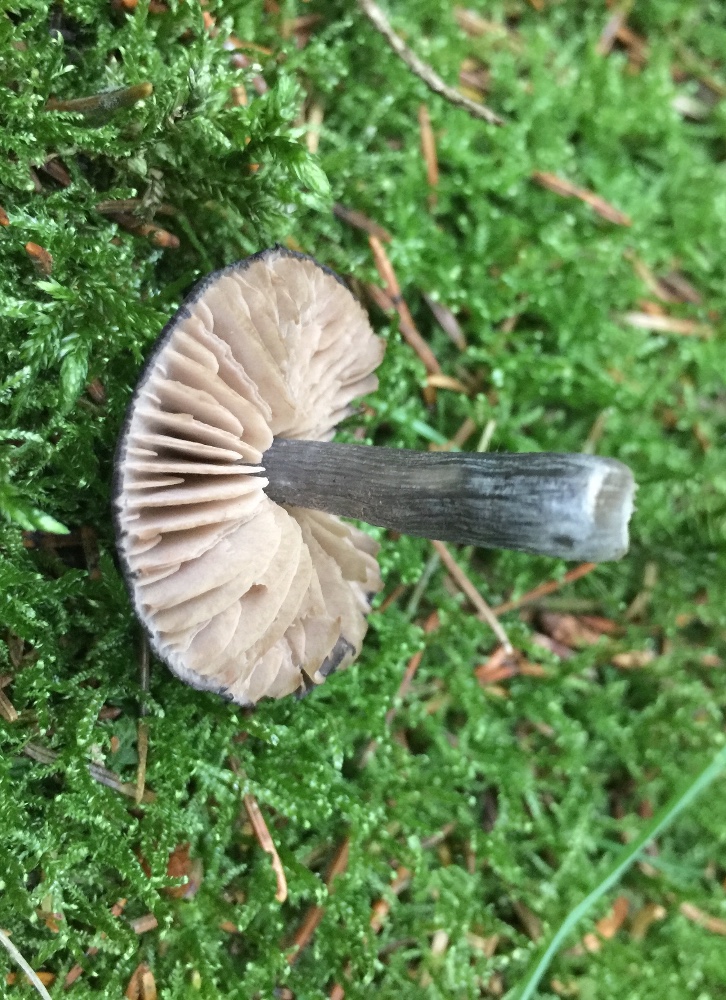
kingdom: Fungi
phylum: Basidiomycota
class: Agaricomycetes
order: Agaricales
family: Entolomataceae
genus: Entocybe
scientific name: Entocybe nitida
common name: stålblå rødblad
